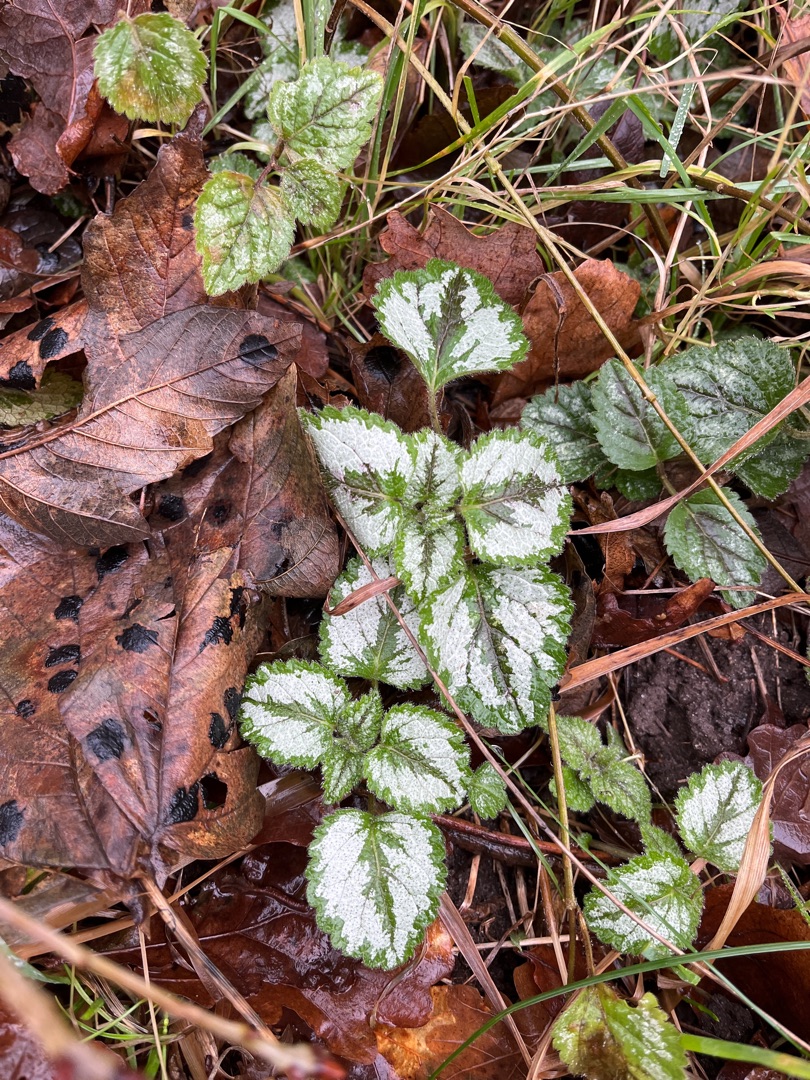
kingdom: Plantae
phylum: Tracheophyta
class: Magnoliopsida
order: Lamiales
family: Lamiaceae
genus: Lamium
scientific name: Lamium galeobdolon
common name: Have-guldnælde
